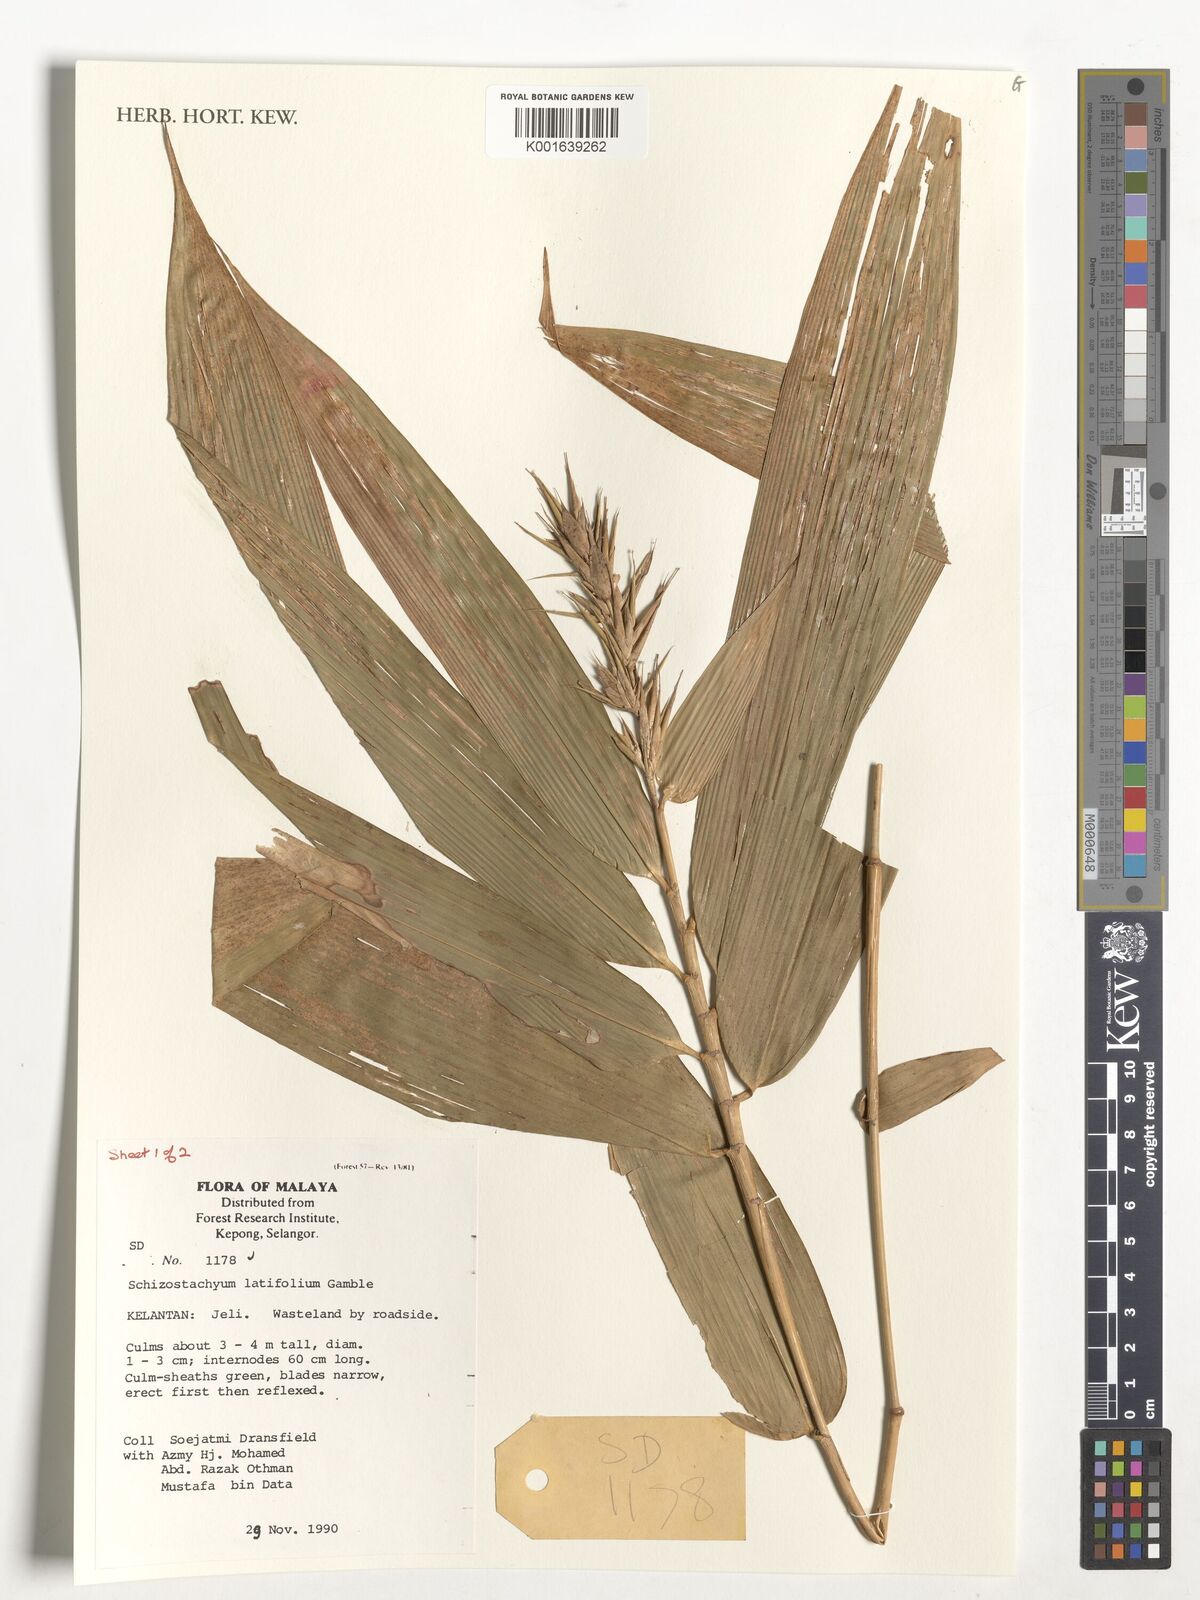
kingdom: Plantae
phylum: Tracheophyta
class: Liliopsida
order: Poales
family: Poaceae
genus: Schizostachyum
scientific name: Schizostachyum latifolium
